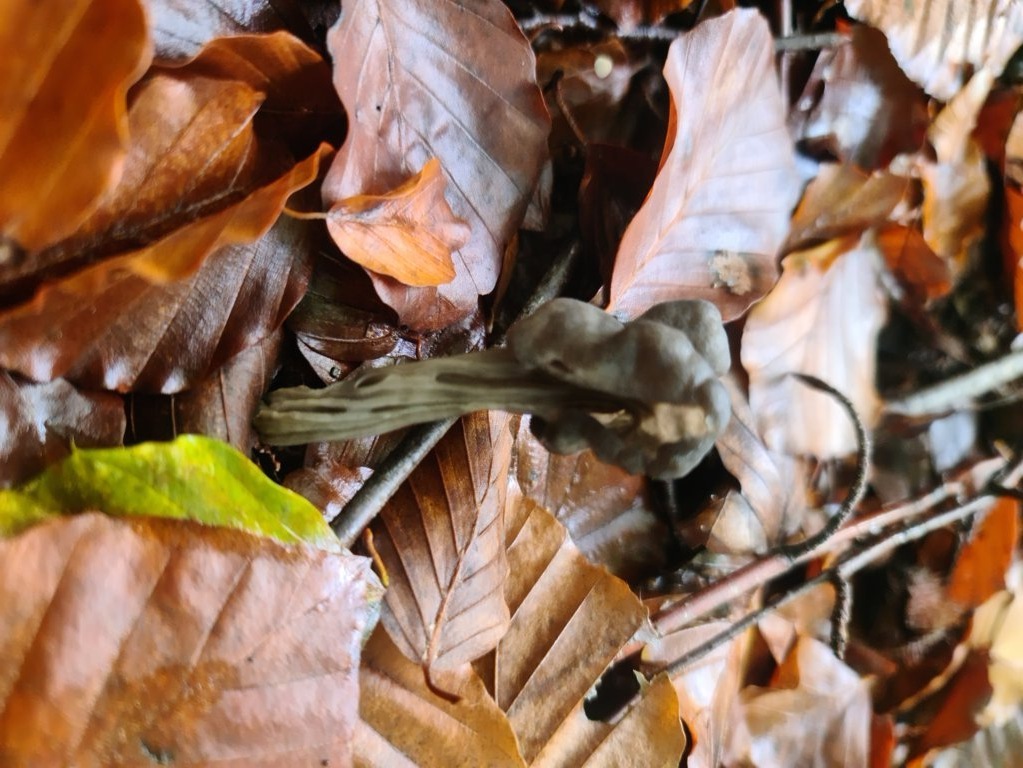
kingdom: Fungi
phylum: Ascomycota
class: Pezizomycetes
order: Pezizales
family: Helvellaceae
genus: Helvella
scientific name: Helvella lacunosa
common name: grubet foldhat
